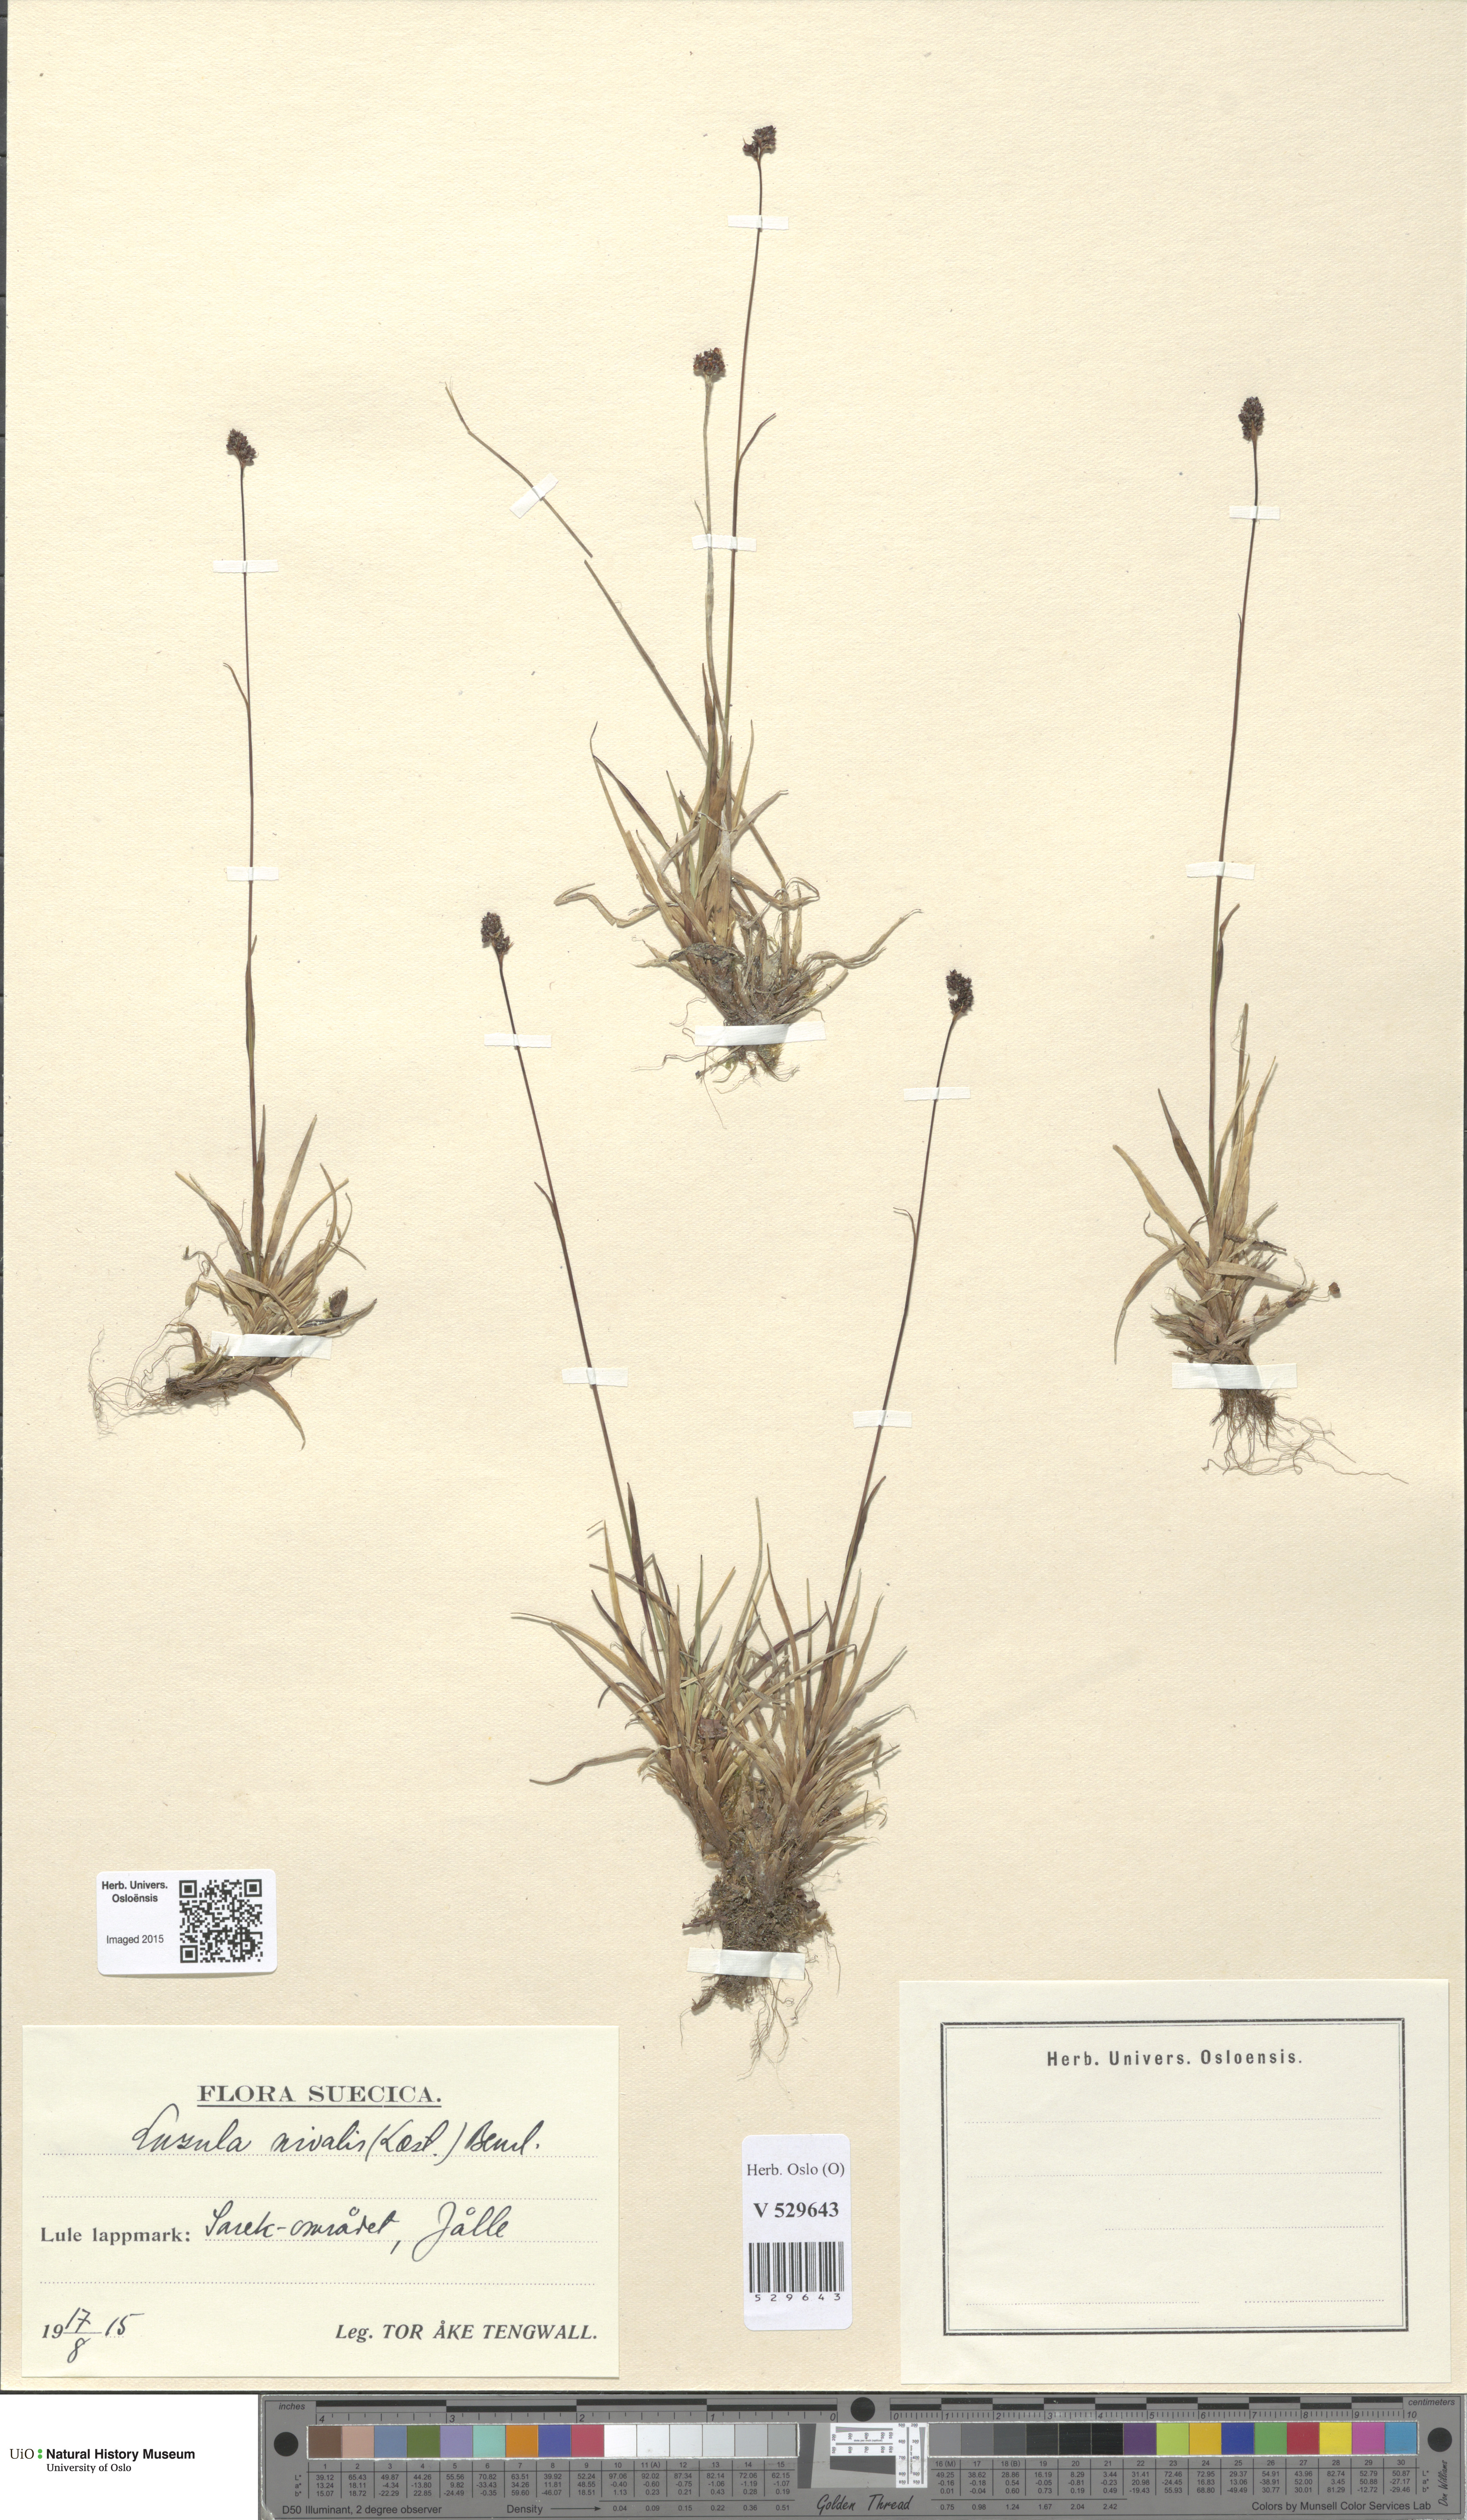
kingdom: Plantae
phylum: Tracheophyta
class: Liliopsida
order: Poales
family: Juncaceae
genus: Luzula
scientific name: Luzula nivalis
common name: Arctic woodrush
